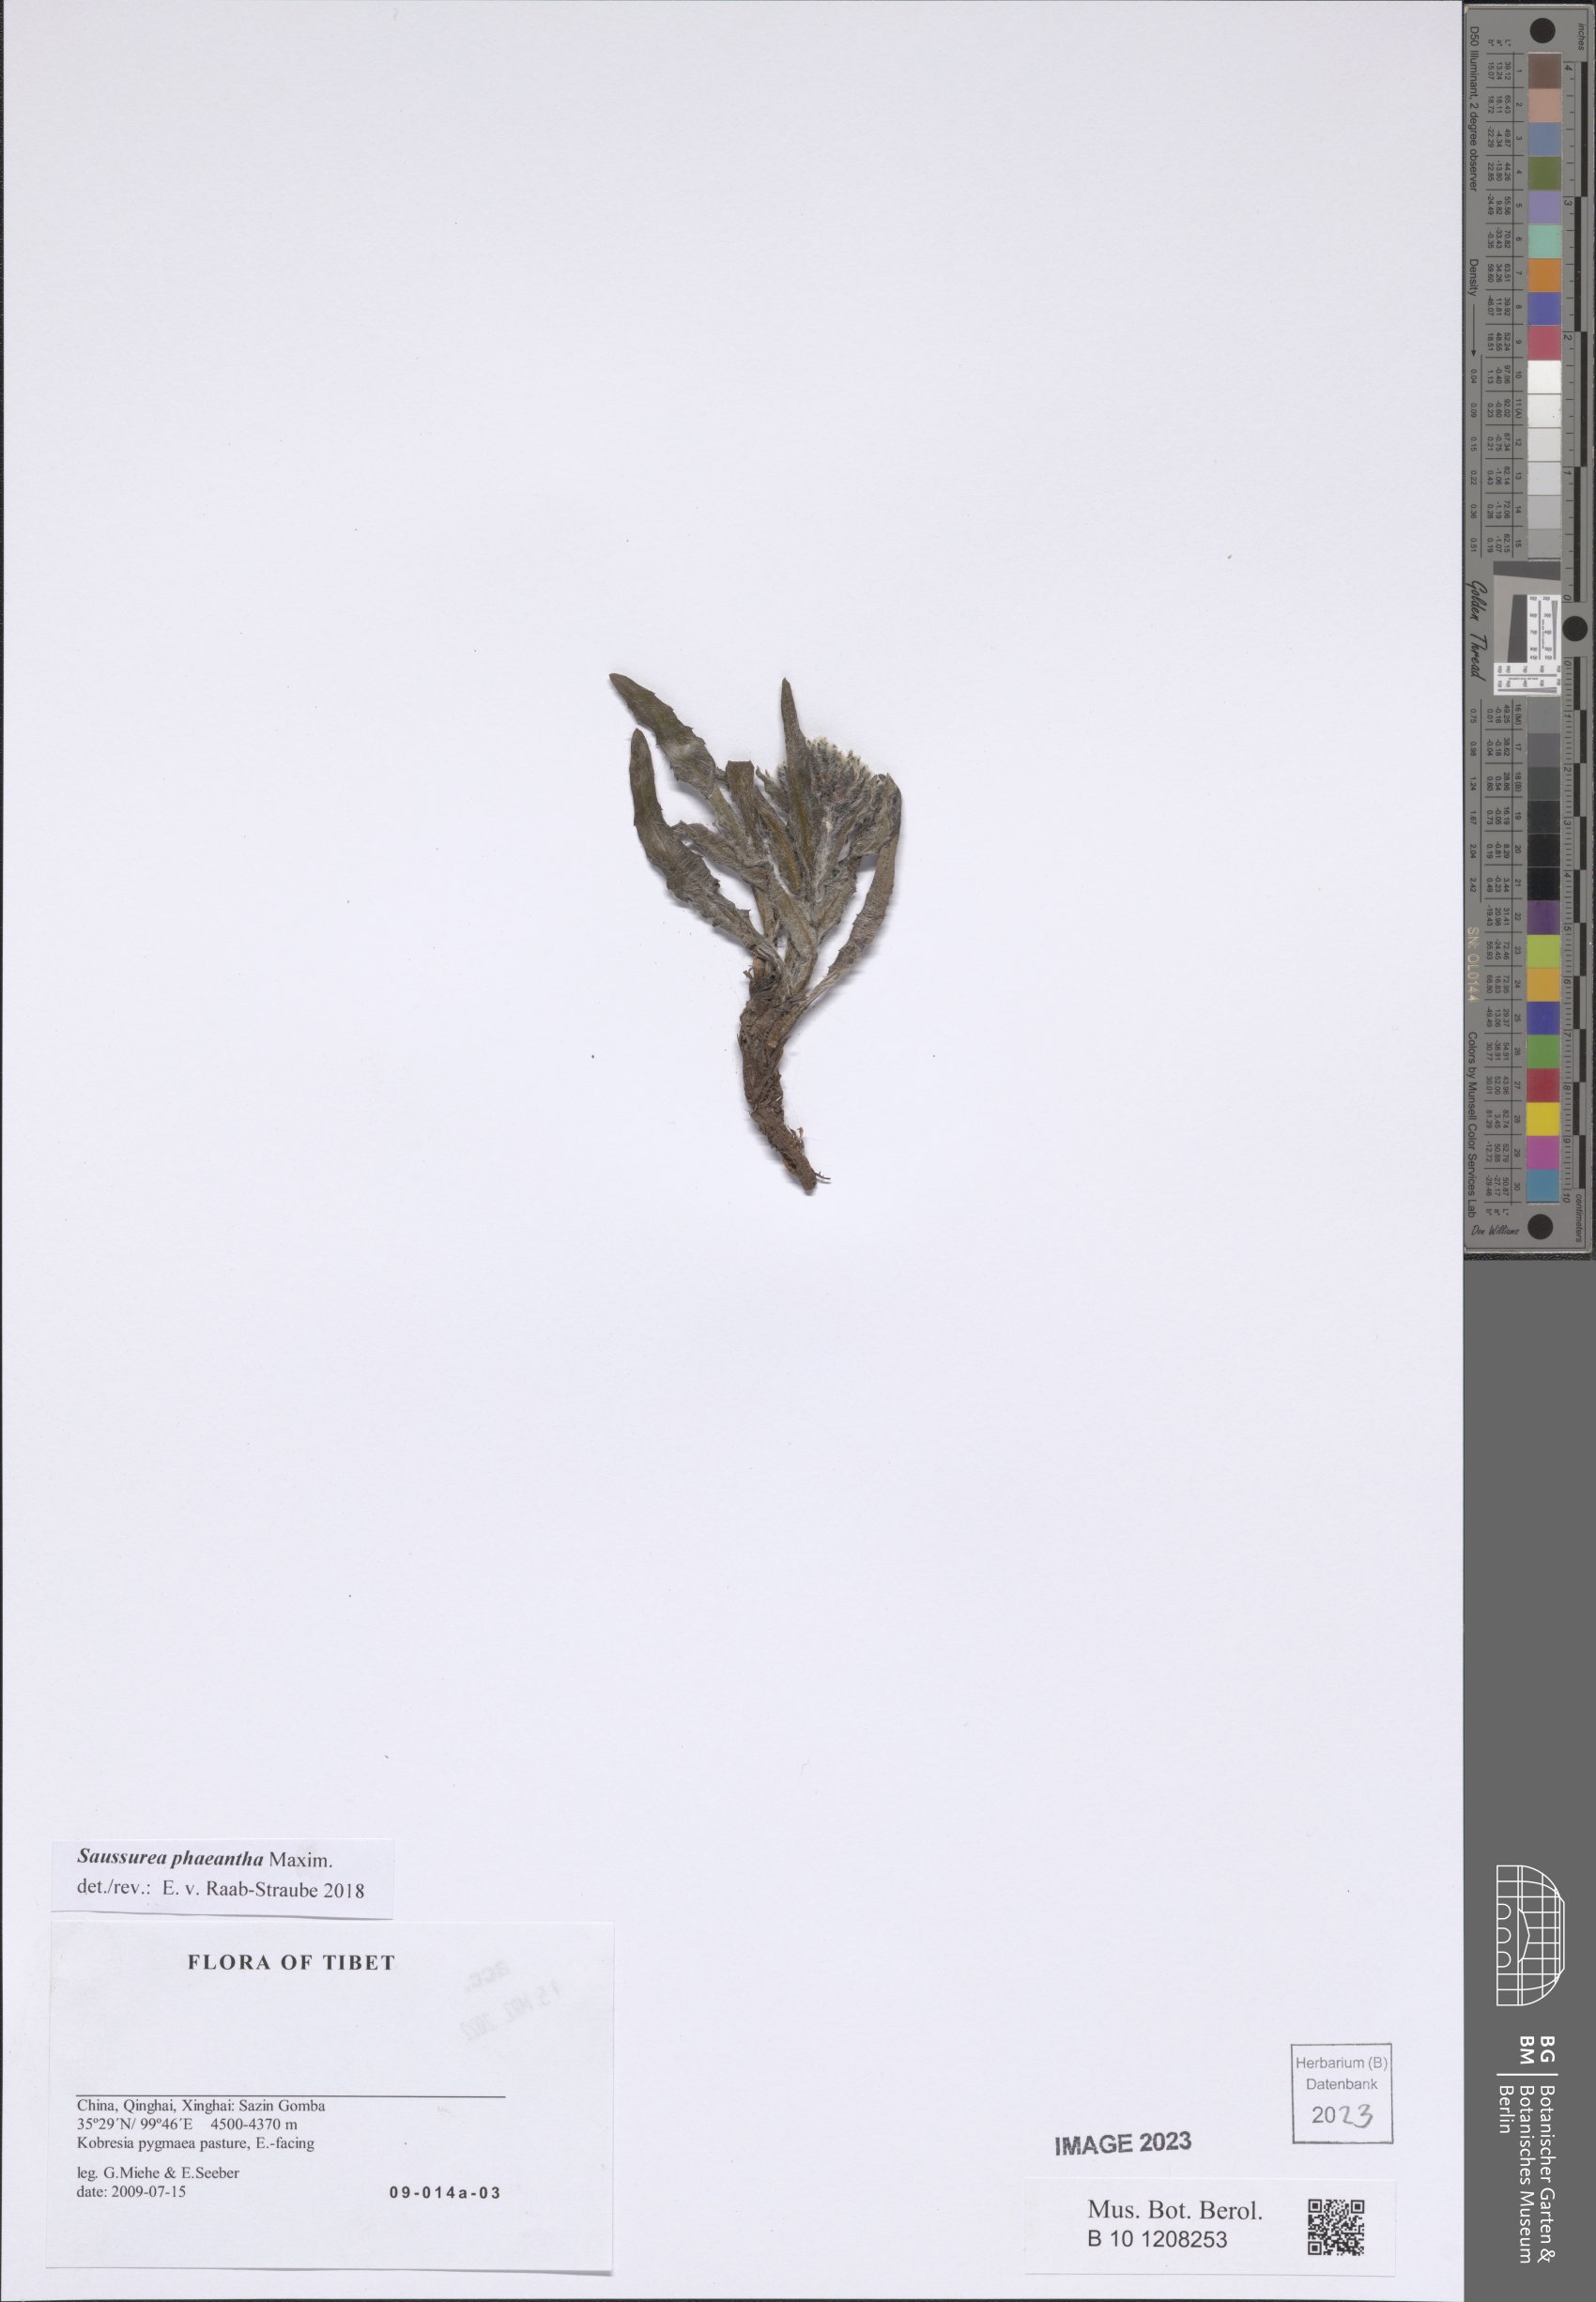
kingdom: Plantae
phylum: Tracheophyta
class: Magnoliopsida
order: Asterales
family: Asteraceae
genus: Saussurea
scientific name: Saussurea phaeantha
